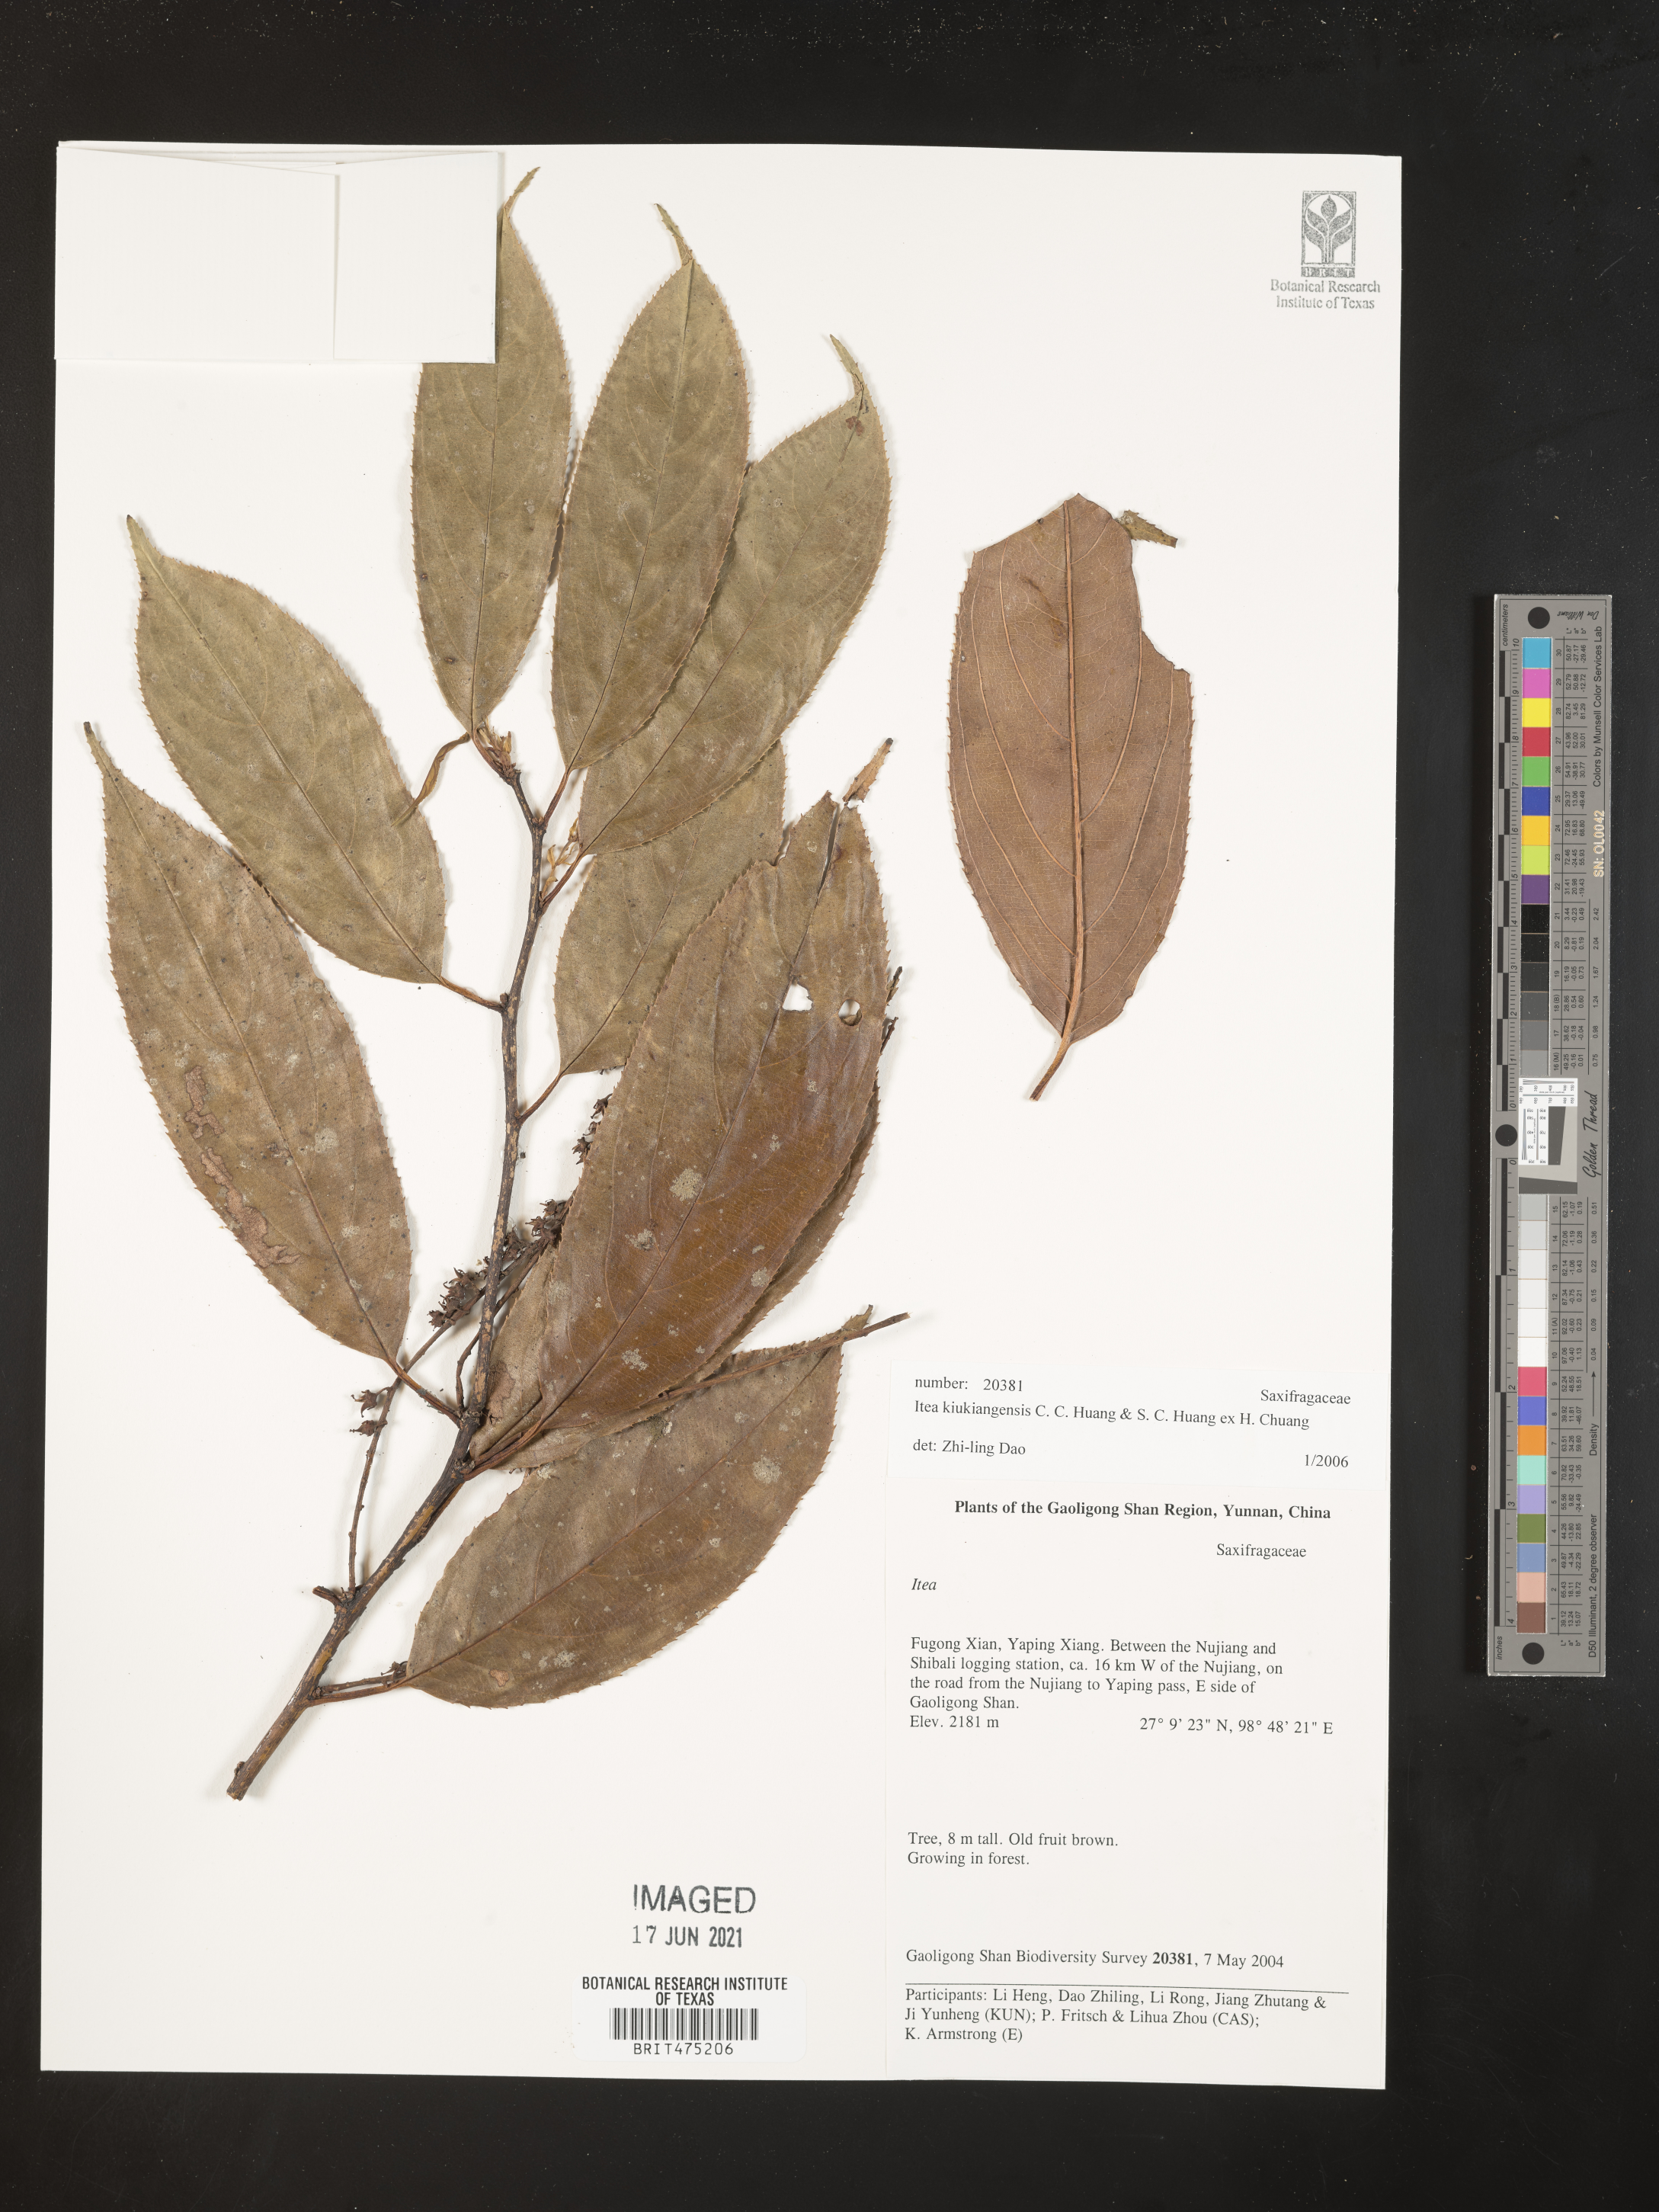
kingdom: Plantae
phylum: Tracheophyta
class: Magnoliopsida
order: Saxifragales
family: Iteaceae
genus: Itea
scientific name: Itea kiukiangensis
